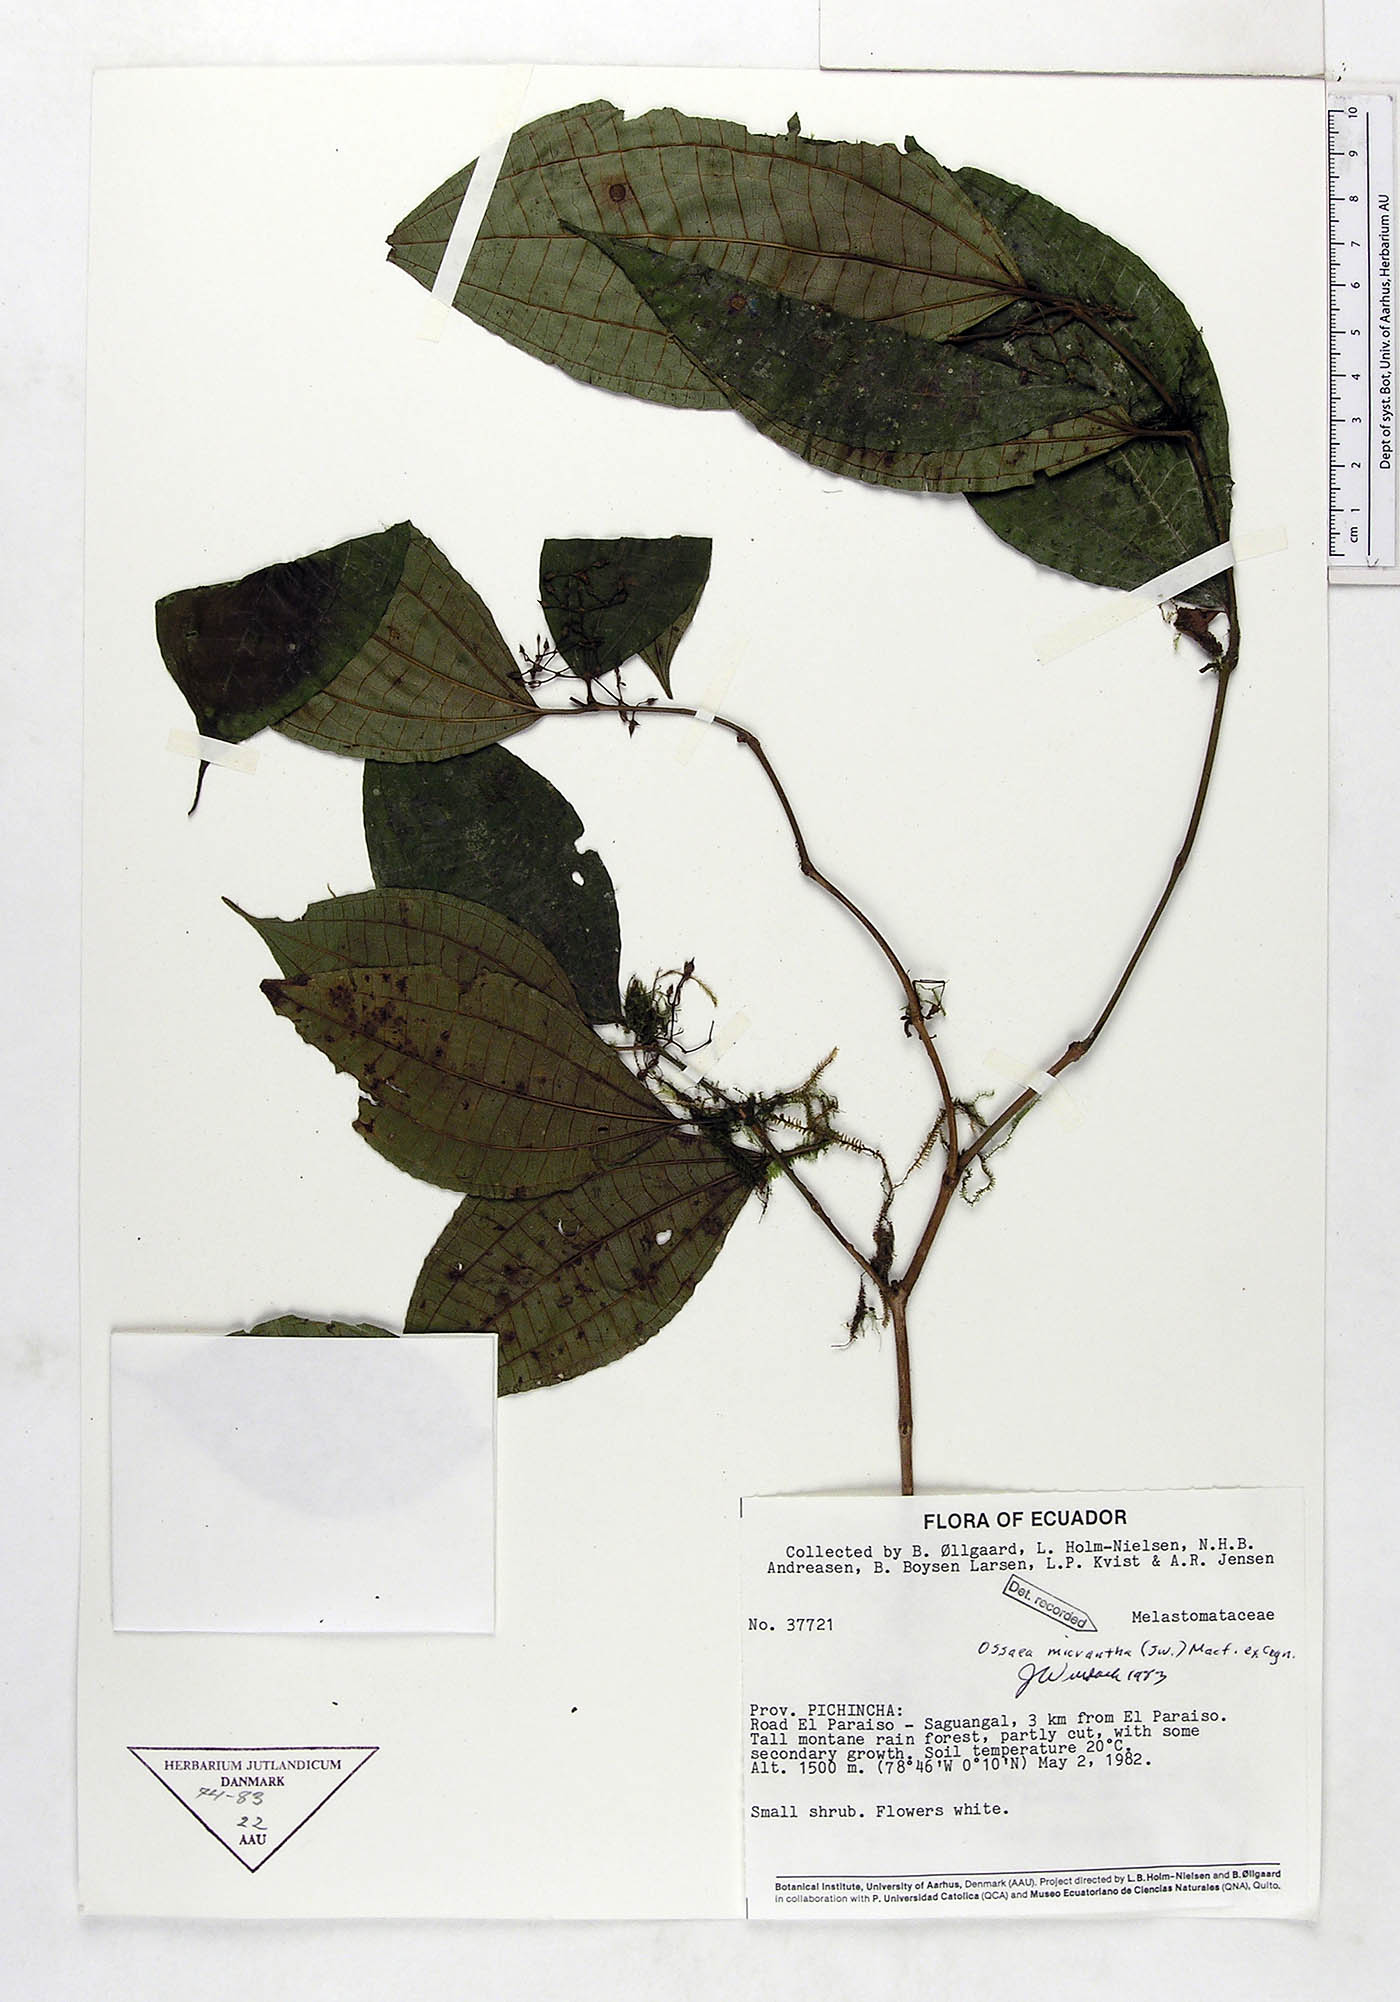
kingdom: Plantae
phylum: Tracheophyta
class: Magnoliopsida
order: Myrtales
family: Melastomataceae
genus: Ossaea
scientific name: Ossaea micrantha
